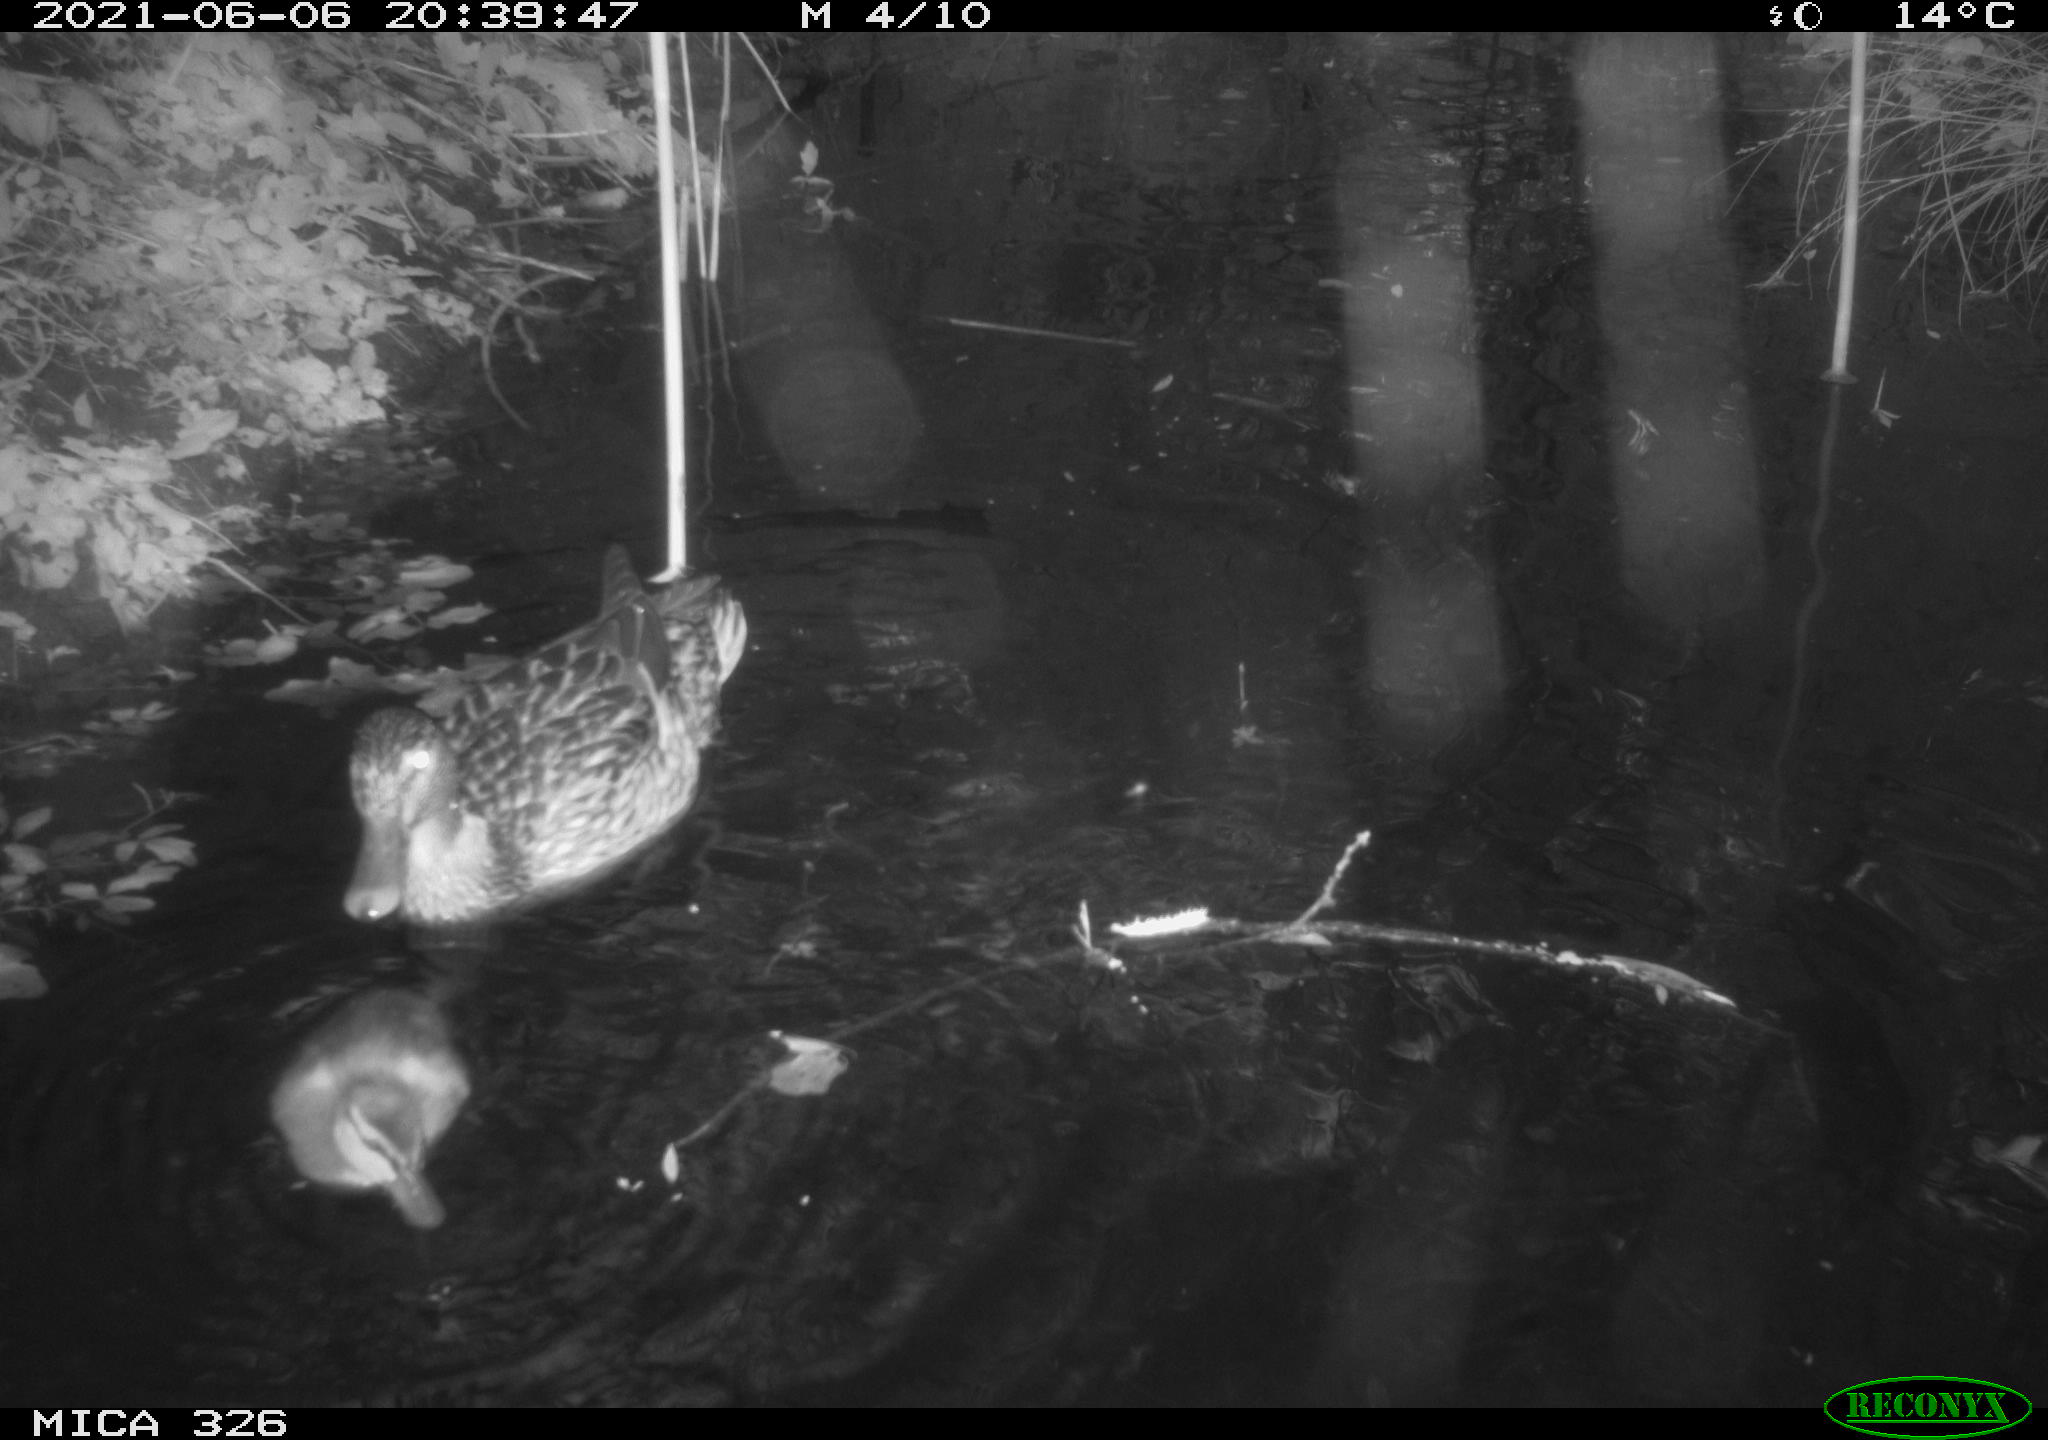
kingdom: Animalia
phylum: Chordata
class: Aves
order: Anseriformes
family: Anatidae
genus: Anas
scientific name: Anas platyrhynchos
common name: Mallard
